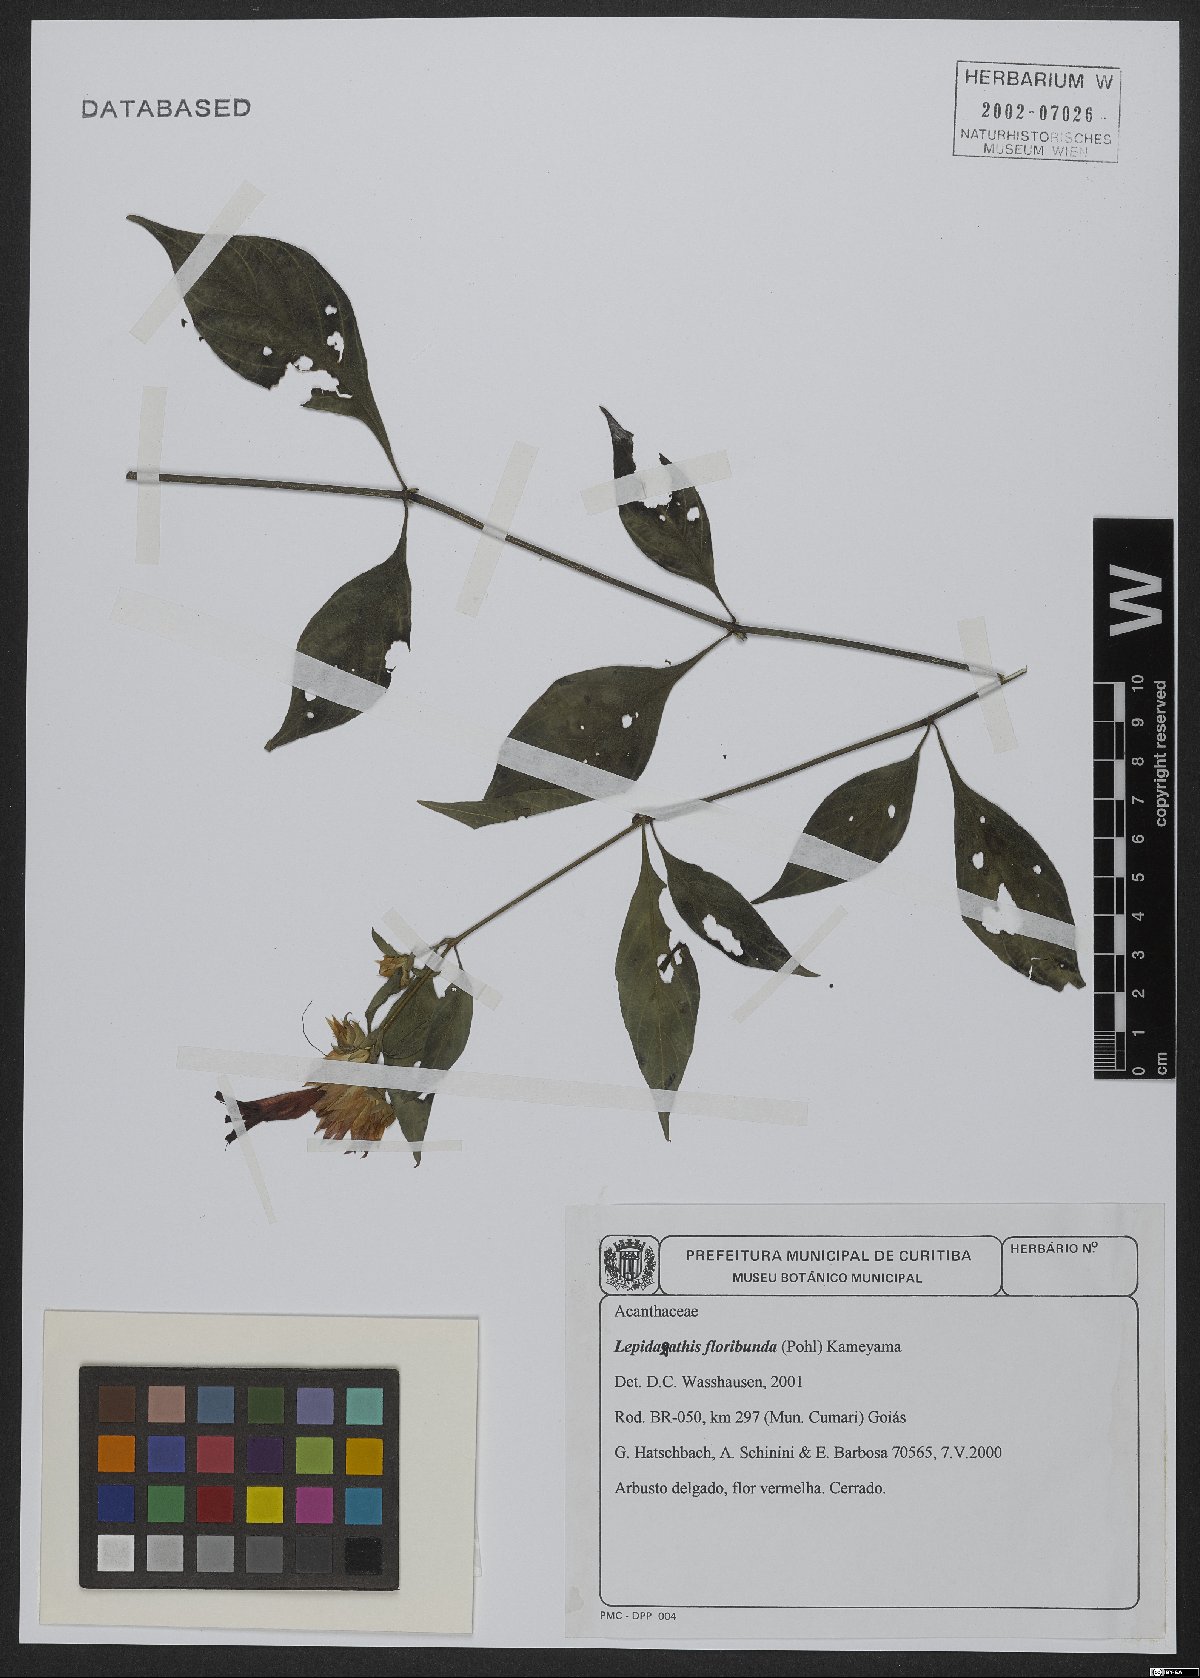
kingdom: Plantae
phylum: Tracheophyta
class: Magnoliopsida
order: Lamiales
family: Acanthaceae
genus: Lepidagathis
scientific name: Lepidagathis floribunda
